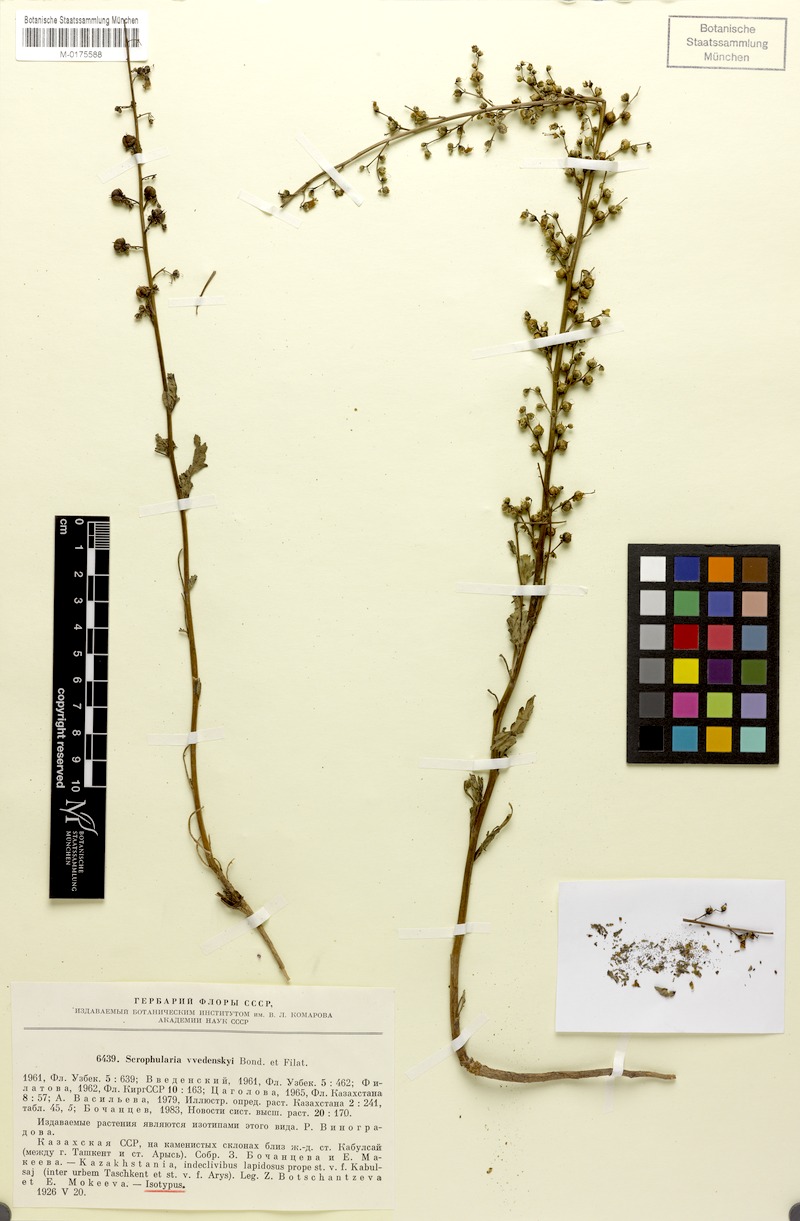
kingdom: Plantae
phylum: Tracheophyta
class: Magnoliopsida
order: Lamiales
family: Scrophulariaceae
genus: Scrophularia
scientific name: Scrophularia vvedenskyi
